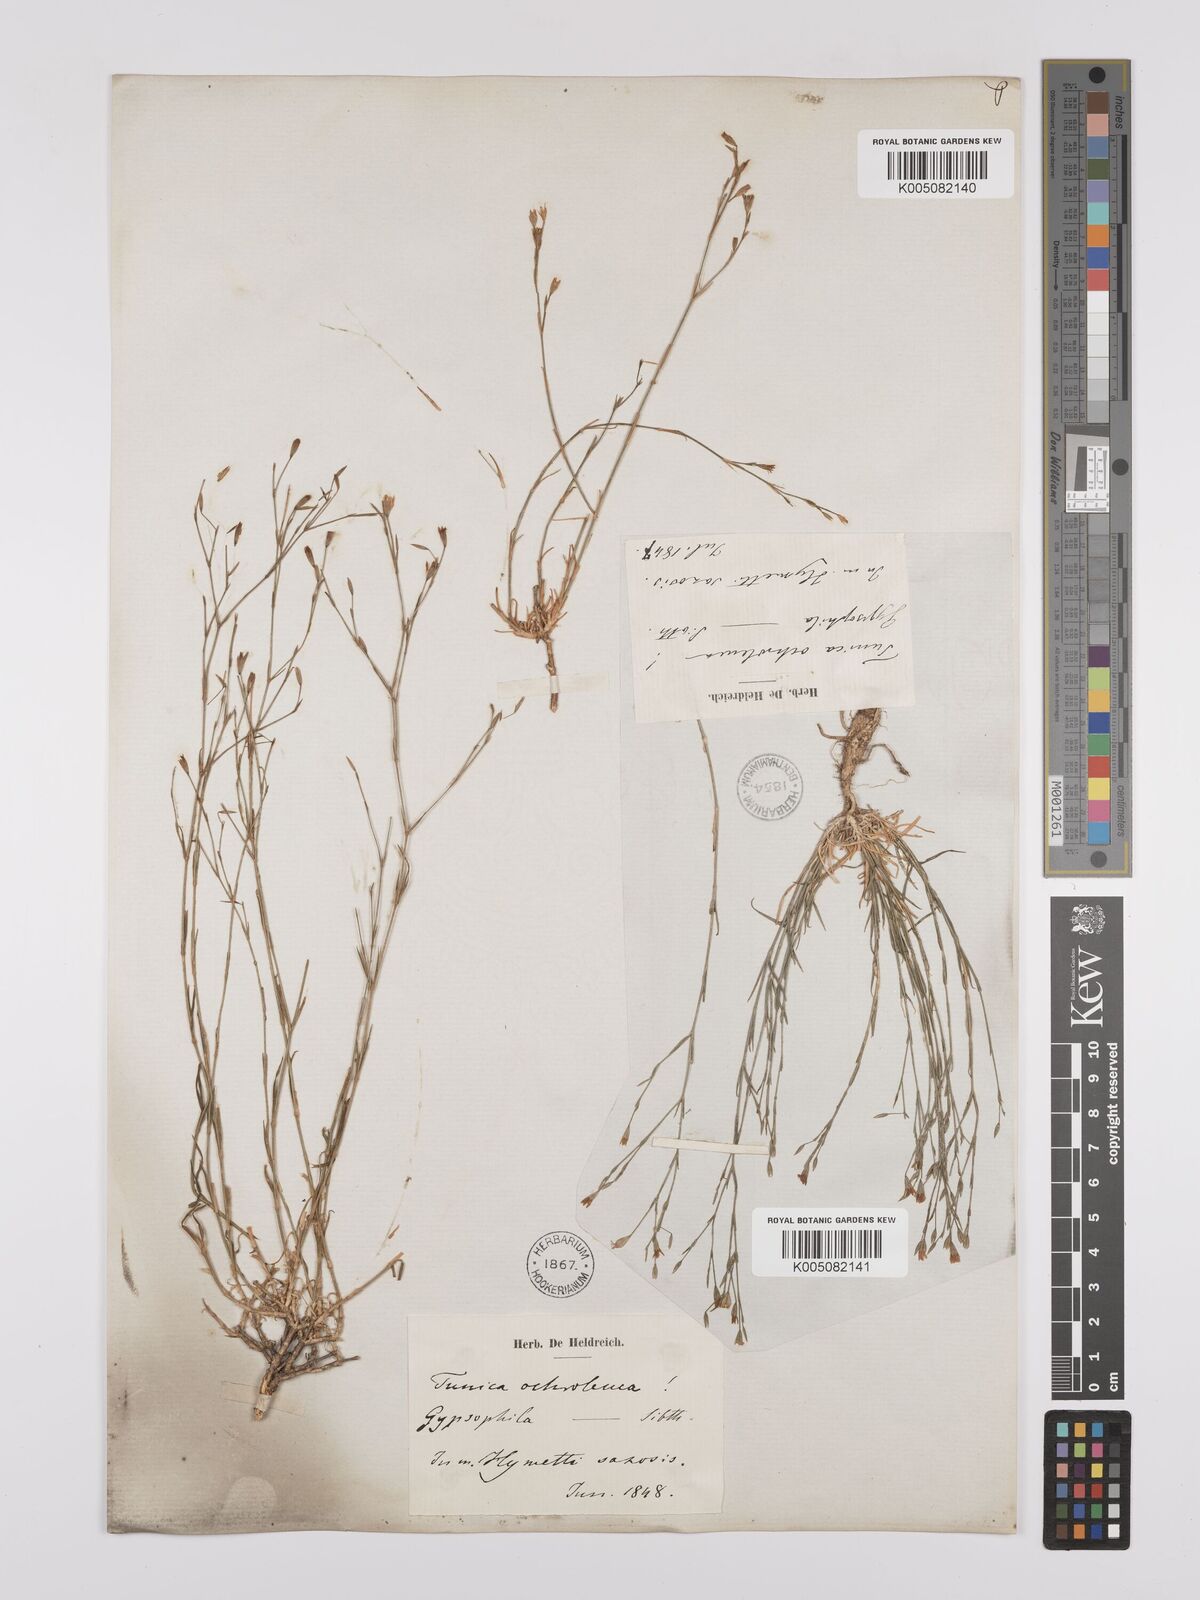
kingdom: Plantae
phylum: Tracheophyta
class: Magnoliopsida
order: Caryophyllales
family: Caryophyllaceae
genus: Petrorhagia
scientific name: Petrorhagia ochroleuca
